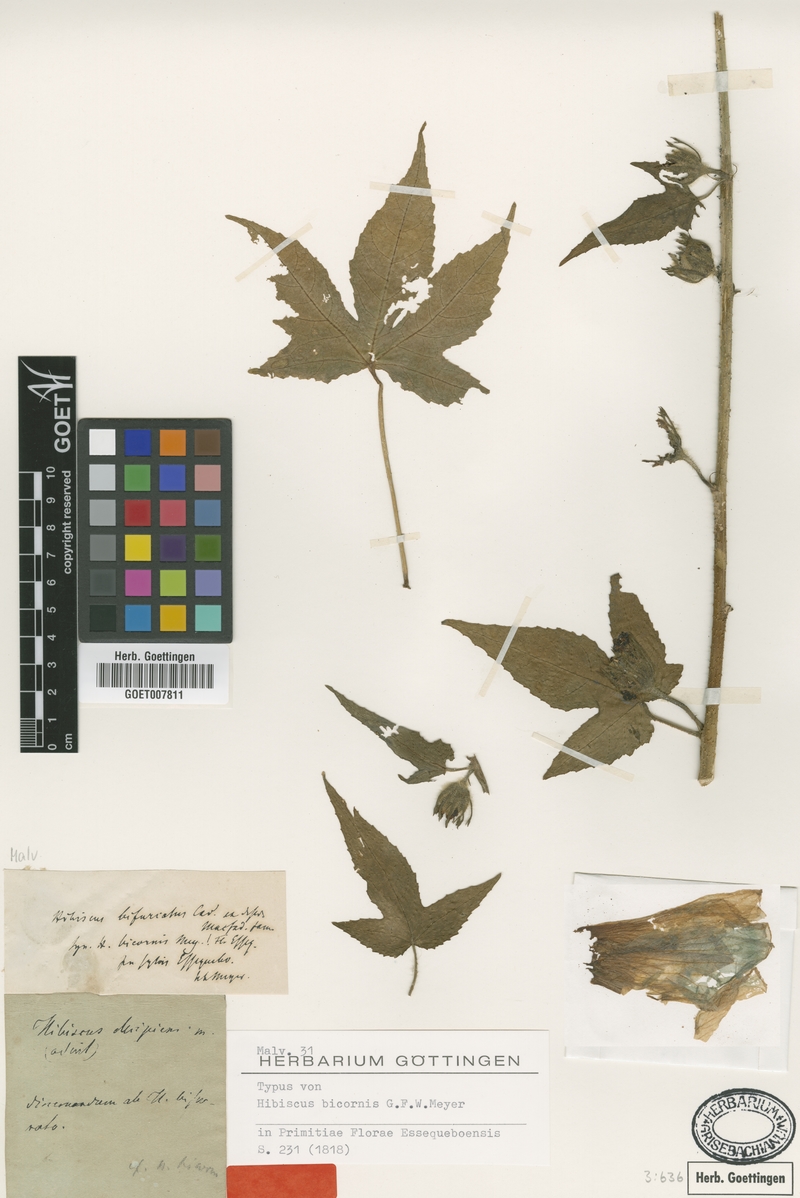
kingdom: Plantae
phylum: Tracheophyta
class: Magnoliopsida
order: Malvales
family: Malvaceae
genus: Hibiscus
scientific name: Hibiscus bifurcatus
